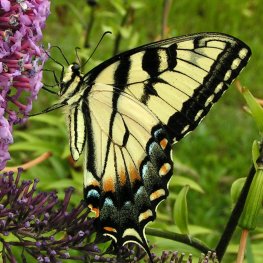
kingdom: Animalia
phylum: Arthropoda
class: Insecta
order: Lepidoptera
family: Papilionidae
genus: Pterourus
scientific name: Pterourus glaucus
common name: Eastern Tiger Swallowtail
